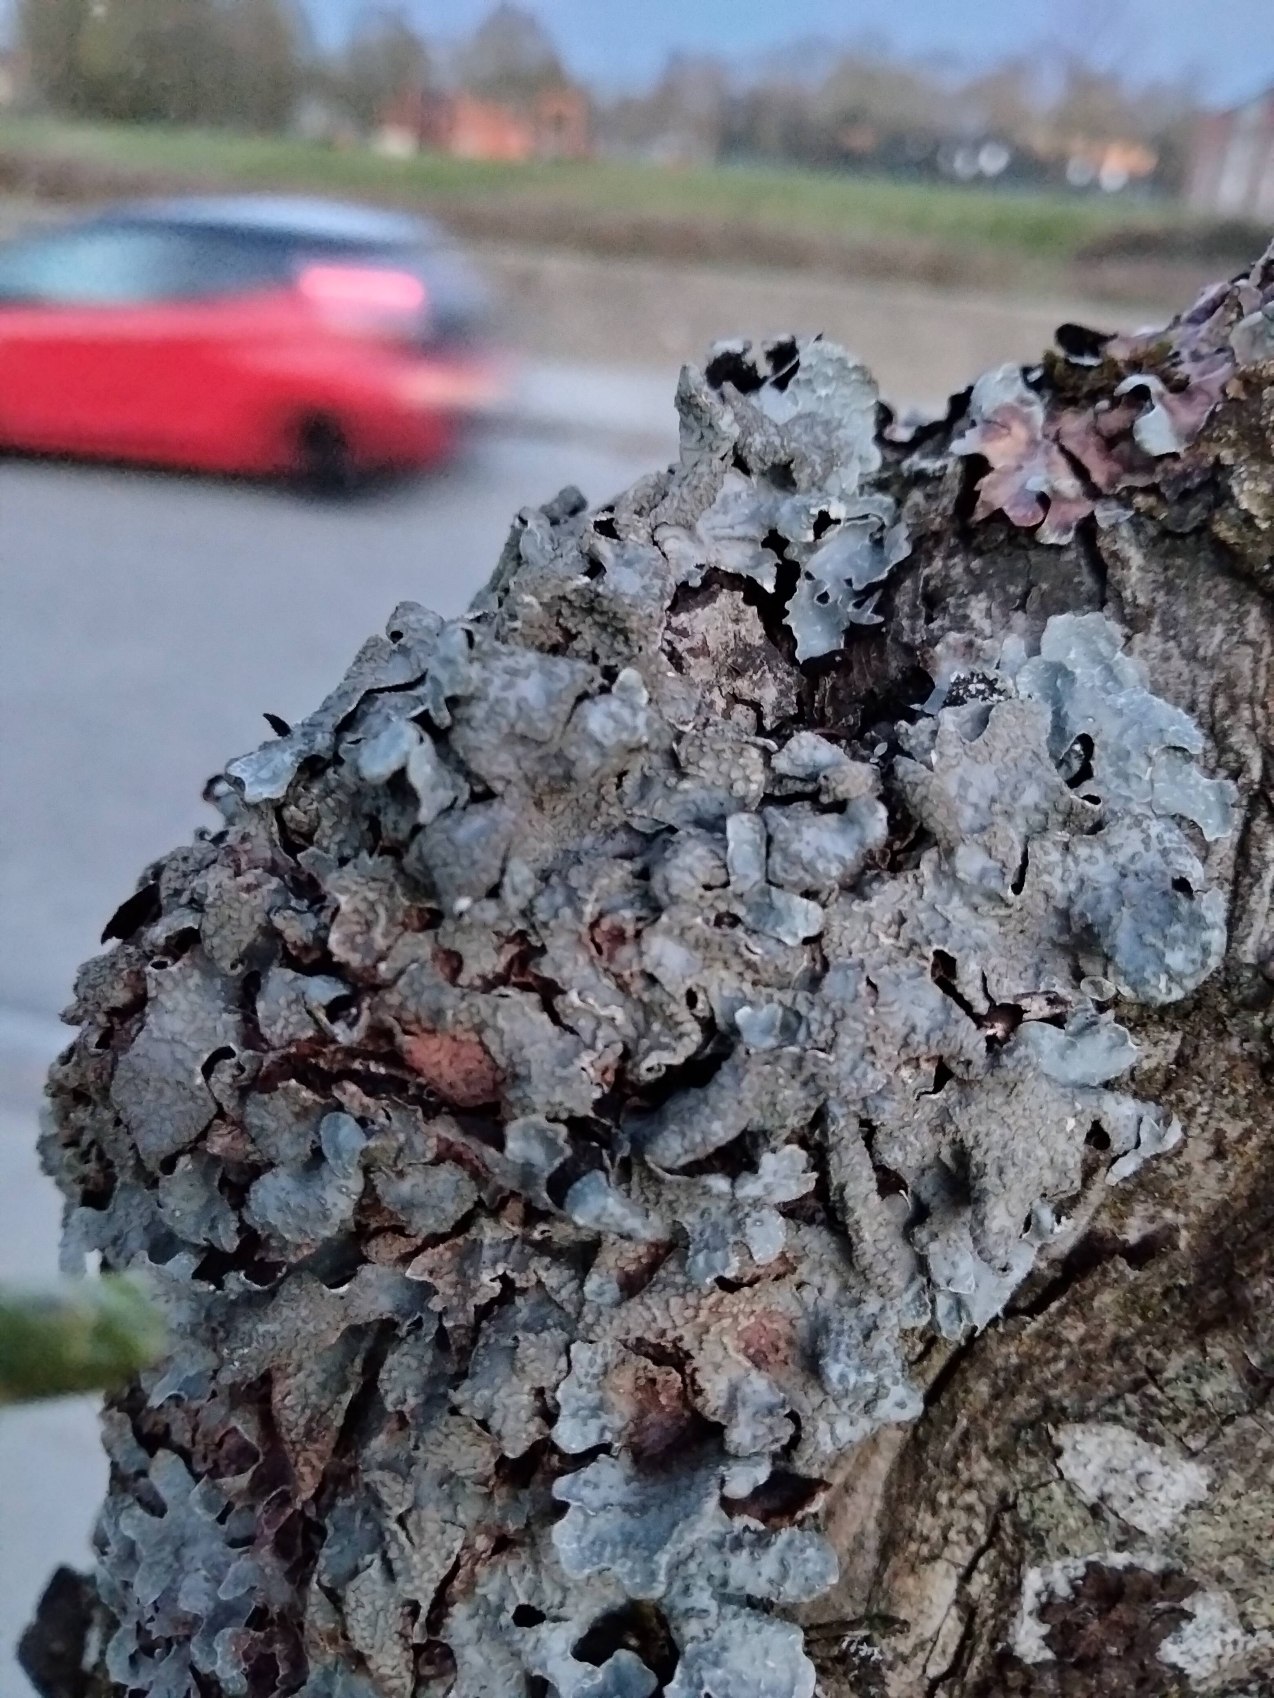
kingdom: Fungi
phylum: Ascomycota
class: Lecanoromycetes
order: Lecanorales
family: Parmeliaceae
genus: Parmelia
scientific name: Parmelia sulcata
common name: Rynket skållav
